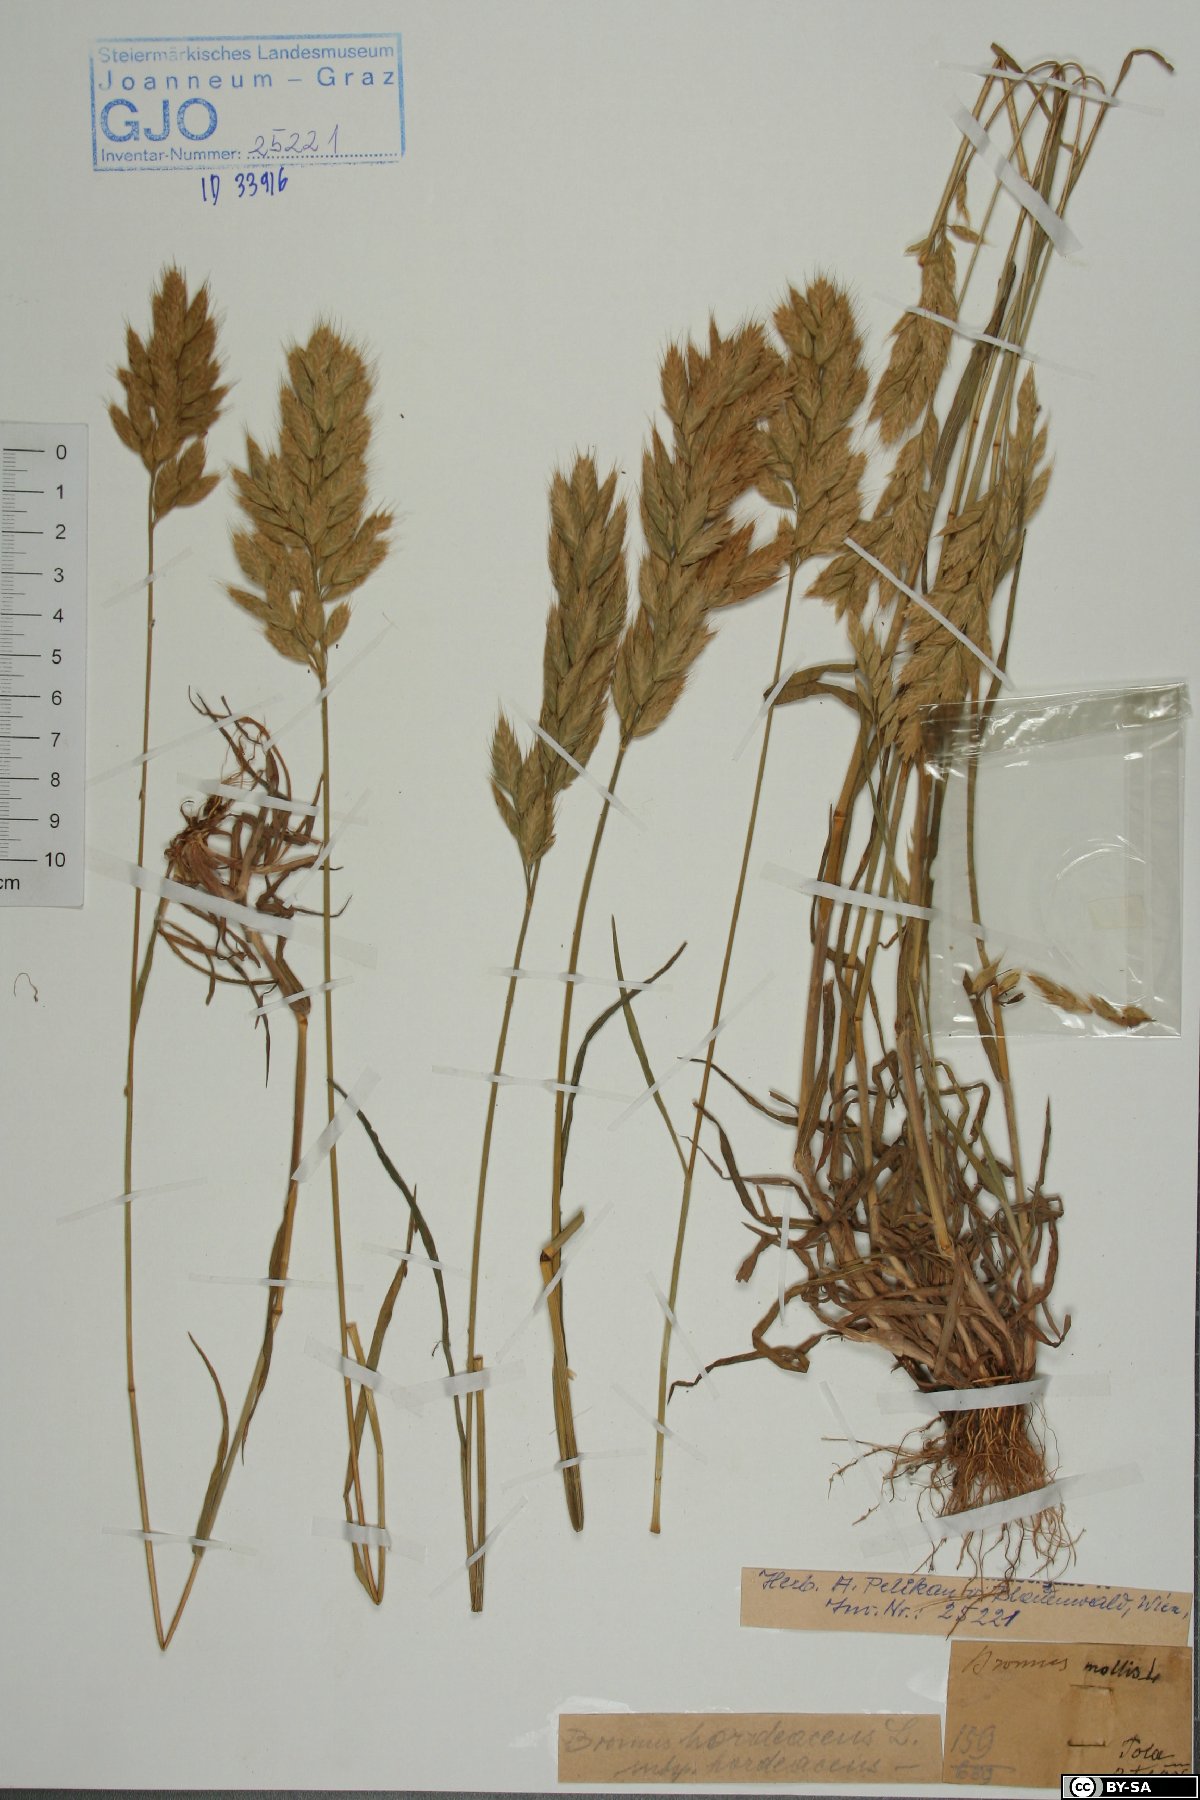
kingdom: Plantae
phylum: Tracheophyta
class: Liliopsida
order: Poales
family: Poaceae
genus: Bromus
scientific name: Bromus hordeaceus
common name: Soft brome
